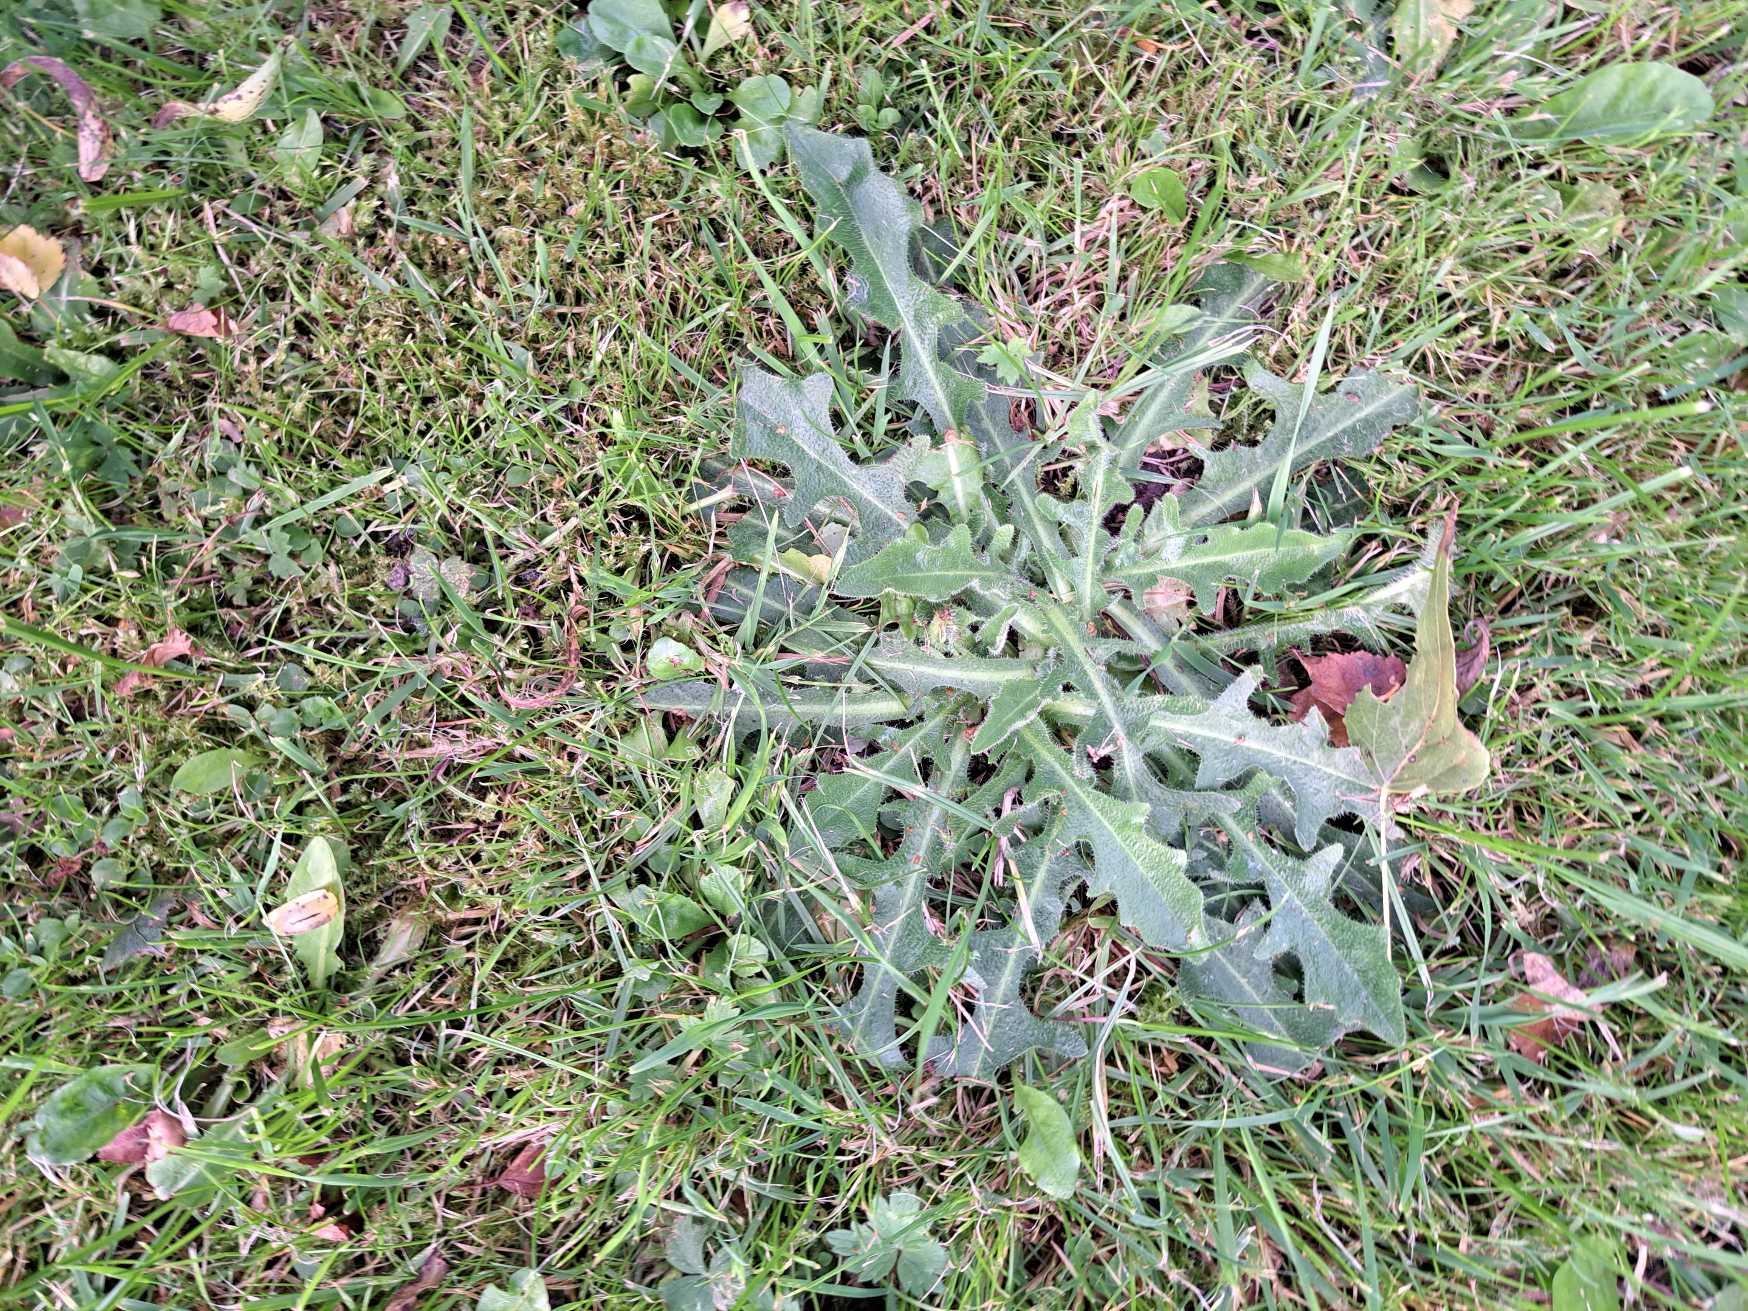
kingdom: Plantae
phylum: Tracheophyta
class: Magnoliopsida
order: Asterales
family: Asteraceae
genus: Hypochaeris
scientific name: Hypochaeris radicata
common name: Almindelig kongepen
